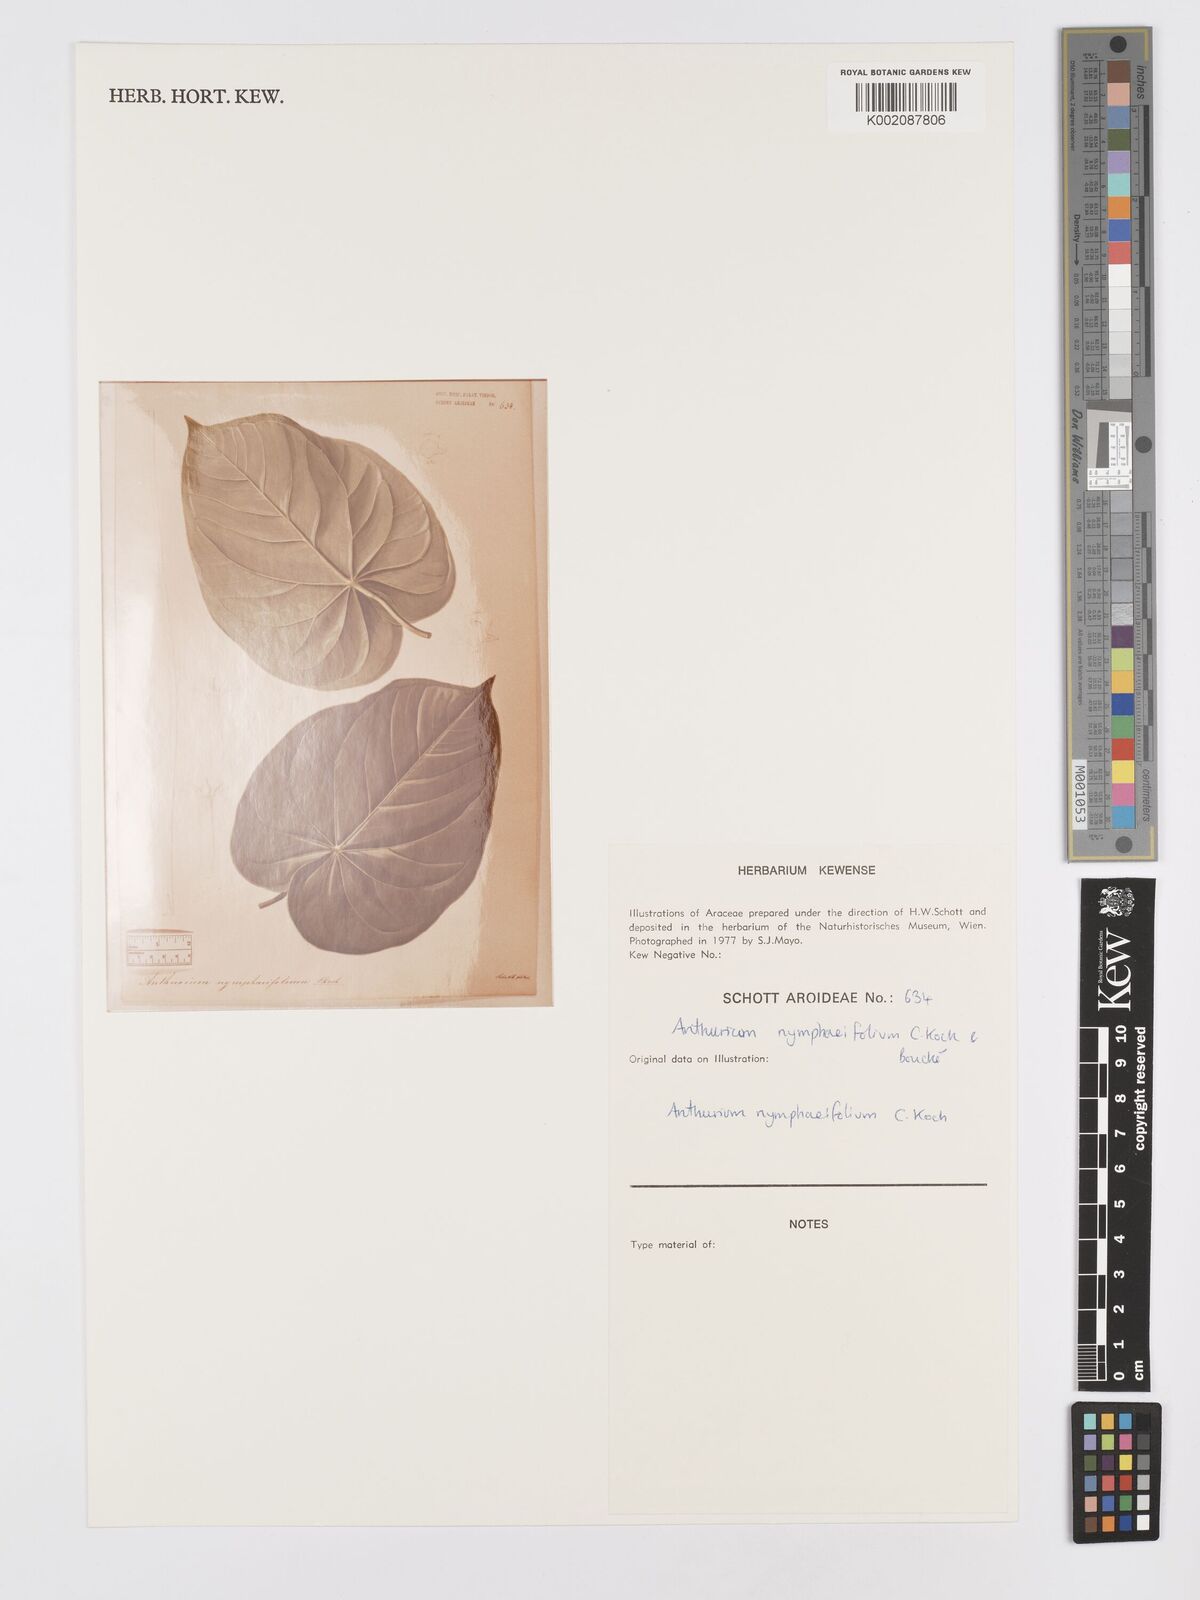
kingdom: Plantae
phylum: Tracheophyta
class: Liliopsida
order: Alismatales
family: Araceae
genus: Anthurium
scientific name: Anthurium nymphaeifolium
